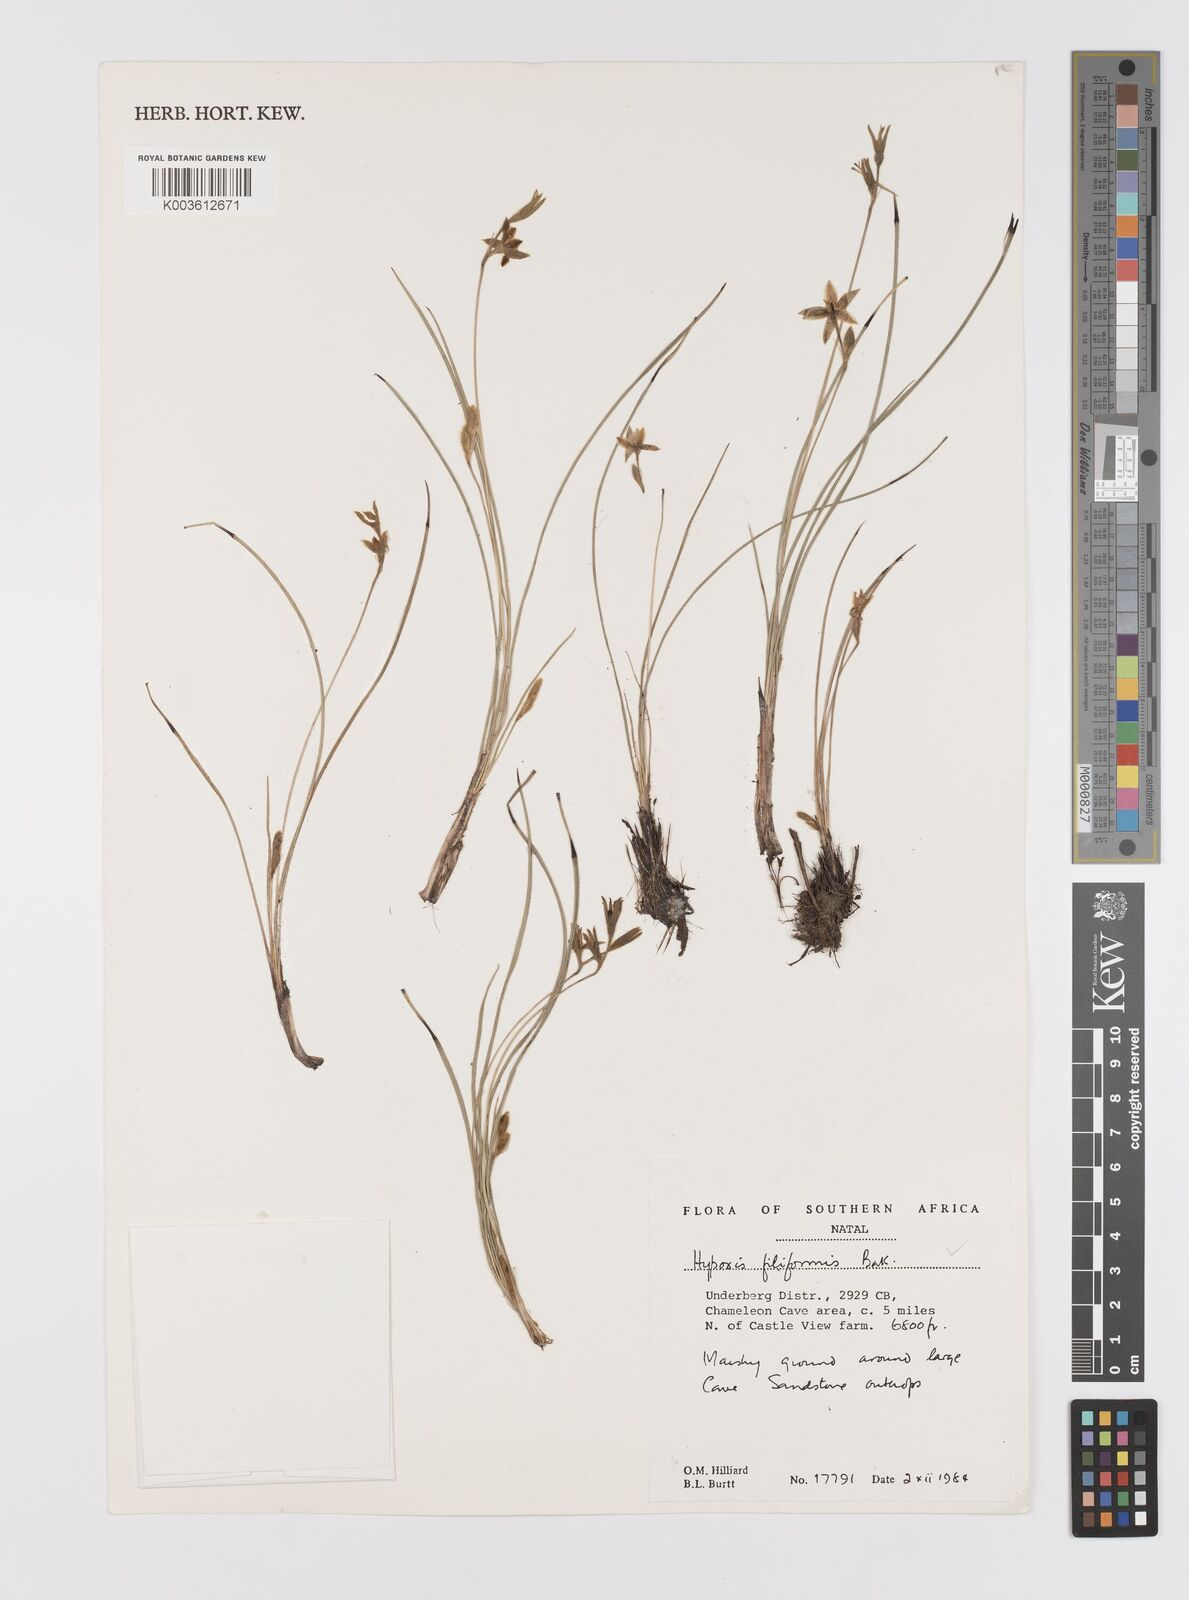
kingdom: Plantae
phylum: Tracheophyta
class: Liliopsida
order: Asparagales
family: Hypoxidaceae
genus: Hypoxis
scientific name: Hypoxis filiformis
